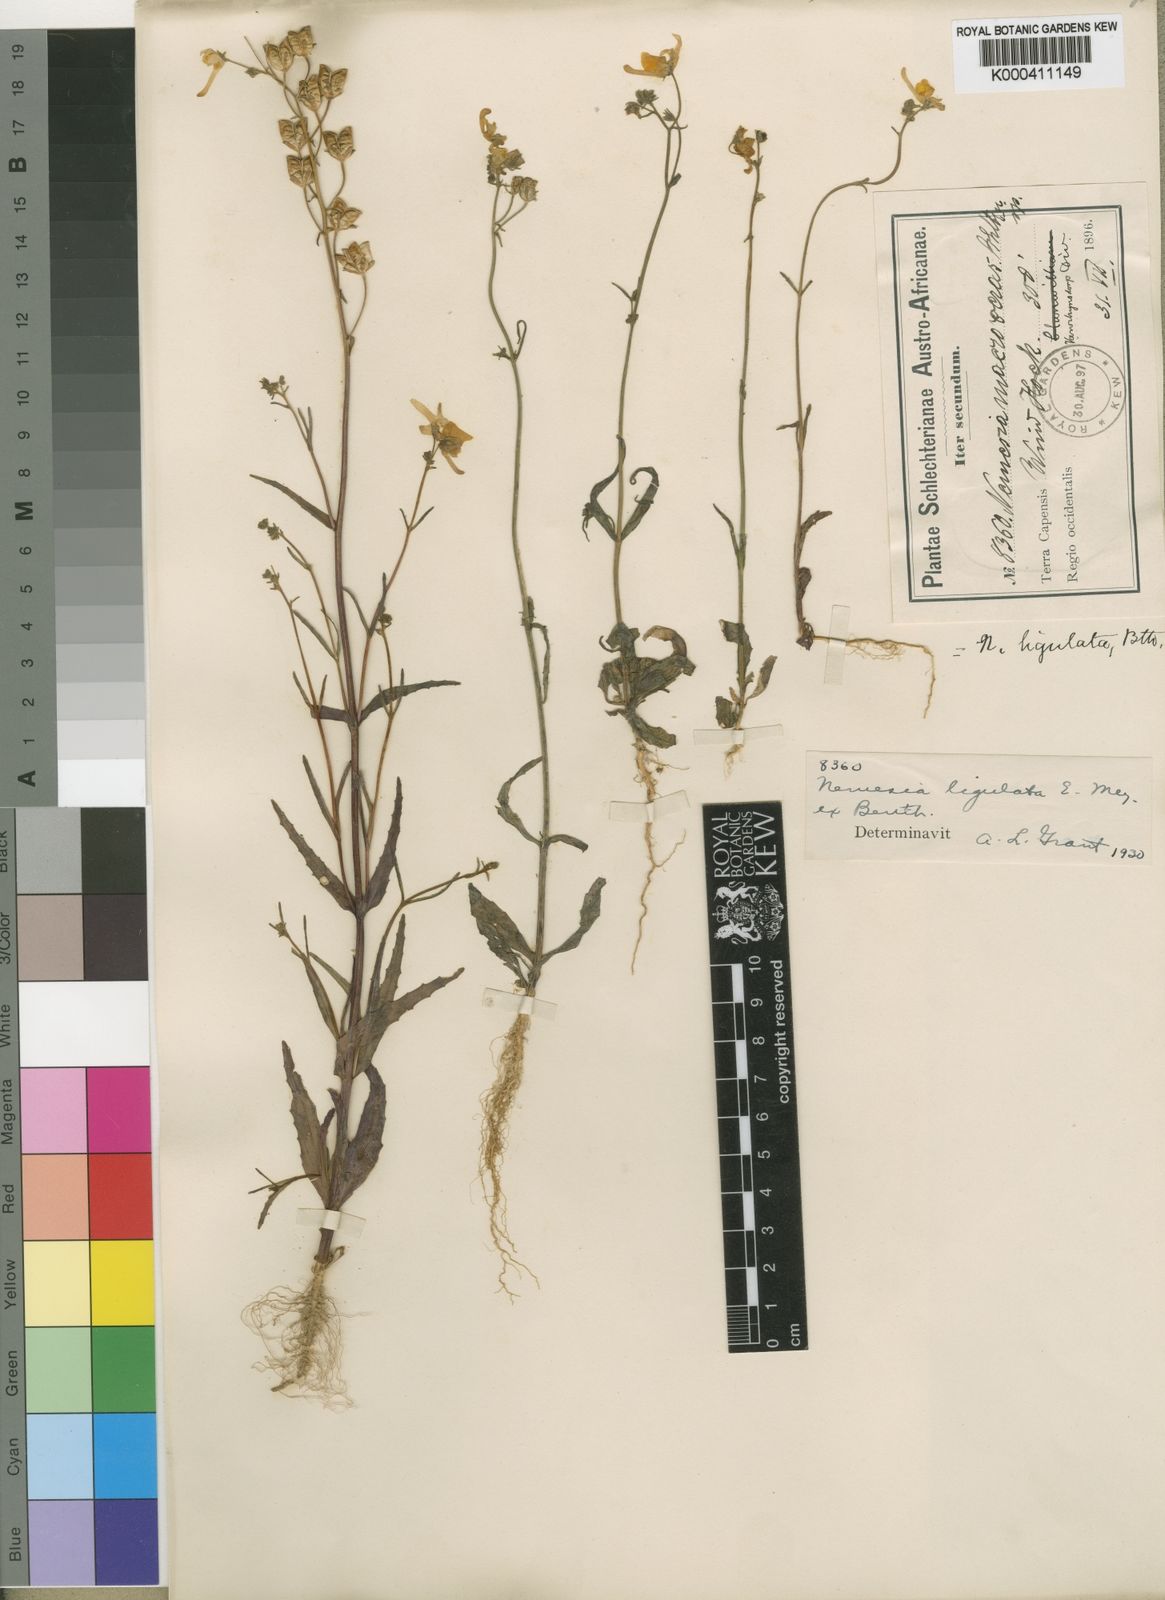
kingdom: Plantae
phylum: Tracheophyta
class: Magnoliopsida
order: Lamiales
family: Scrophulariaceae
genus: Nemesia
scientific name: Nemesia ligulata
